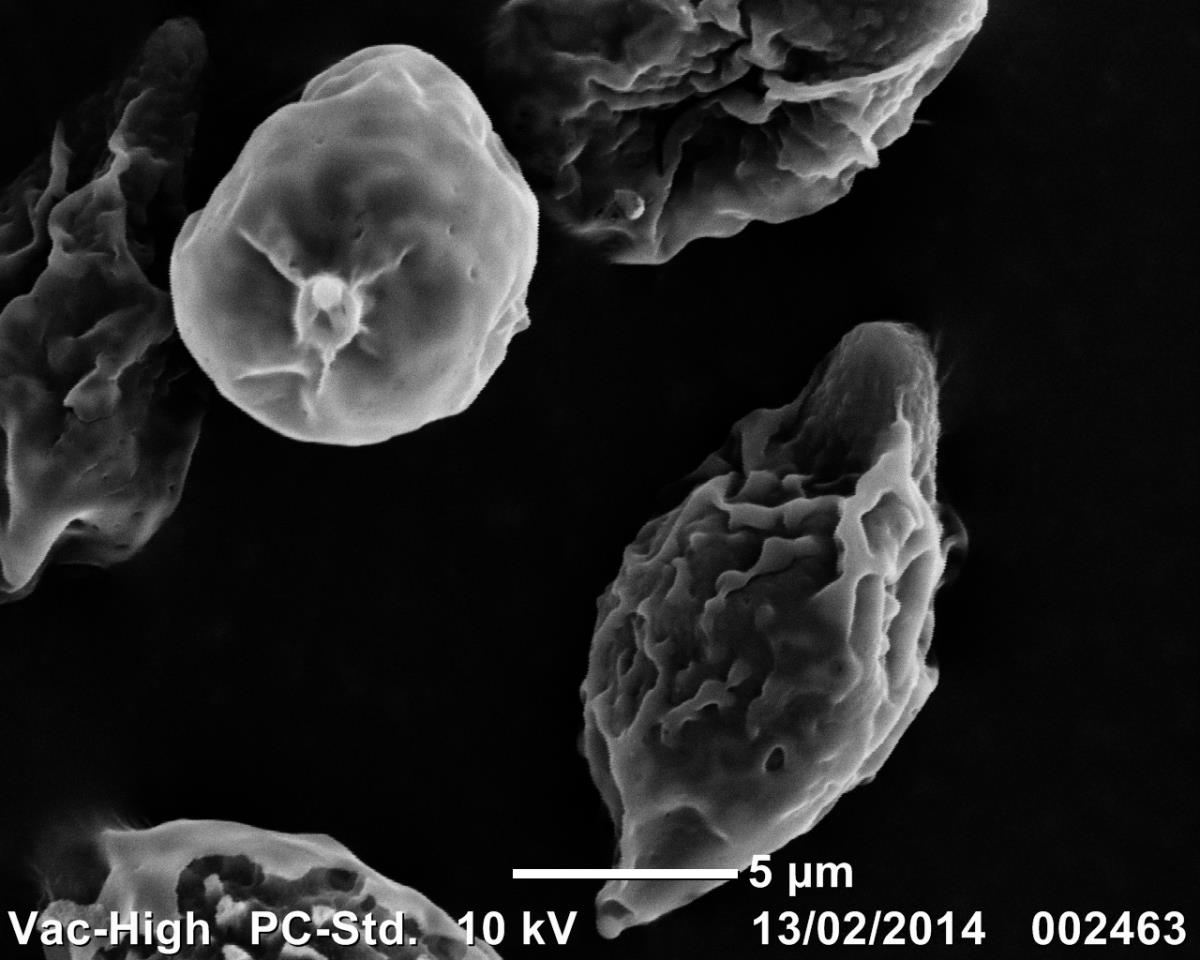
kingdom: Fungi
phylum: Basidiomycota
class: Agaricomycetes
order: Agaricales
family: Bolbitiaceae
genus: Descomyces
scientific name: Descomyces
